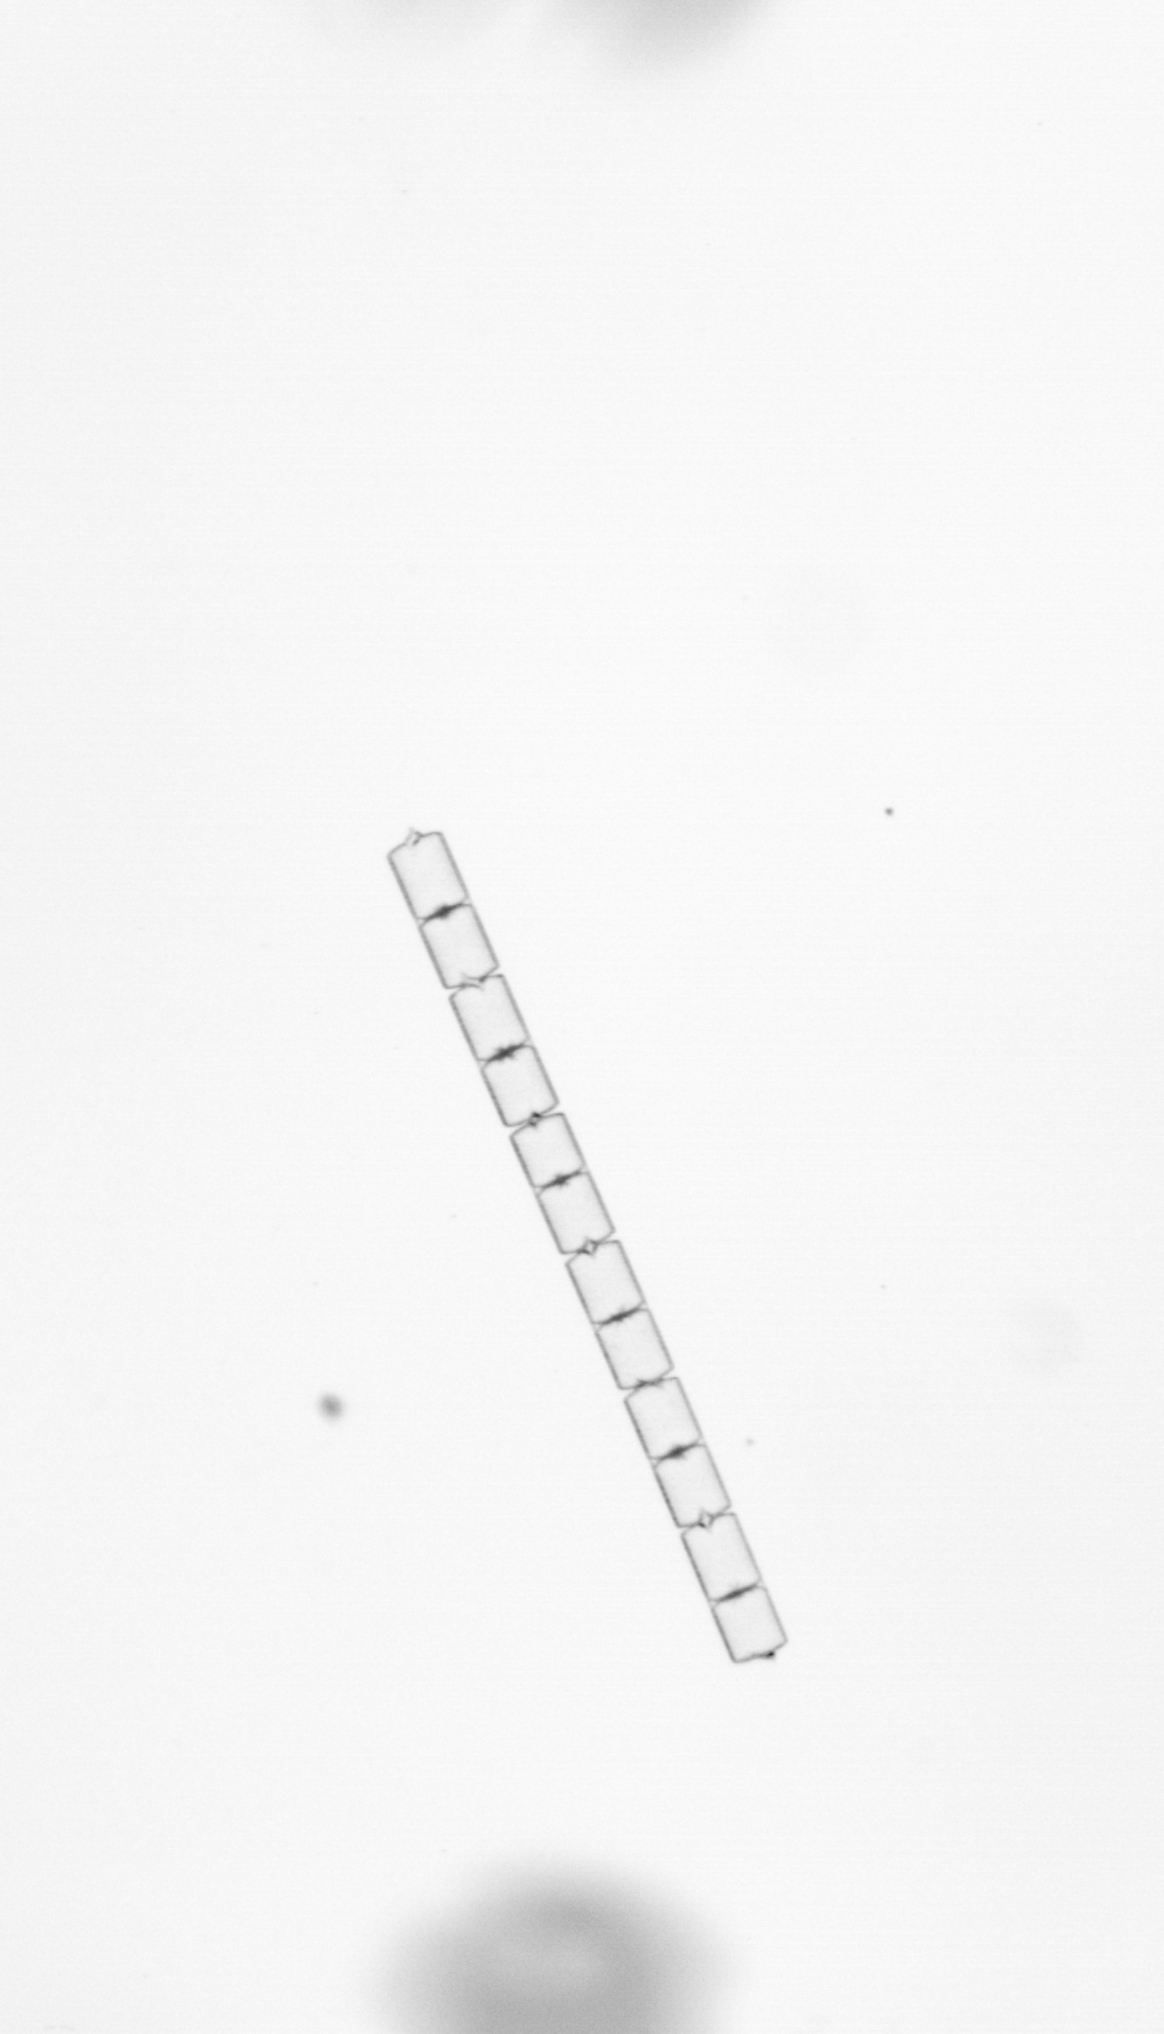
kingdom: Chromista
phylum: Ochrophyta
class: Bacillariophyceae
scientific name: Bacillariophyceae
